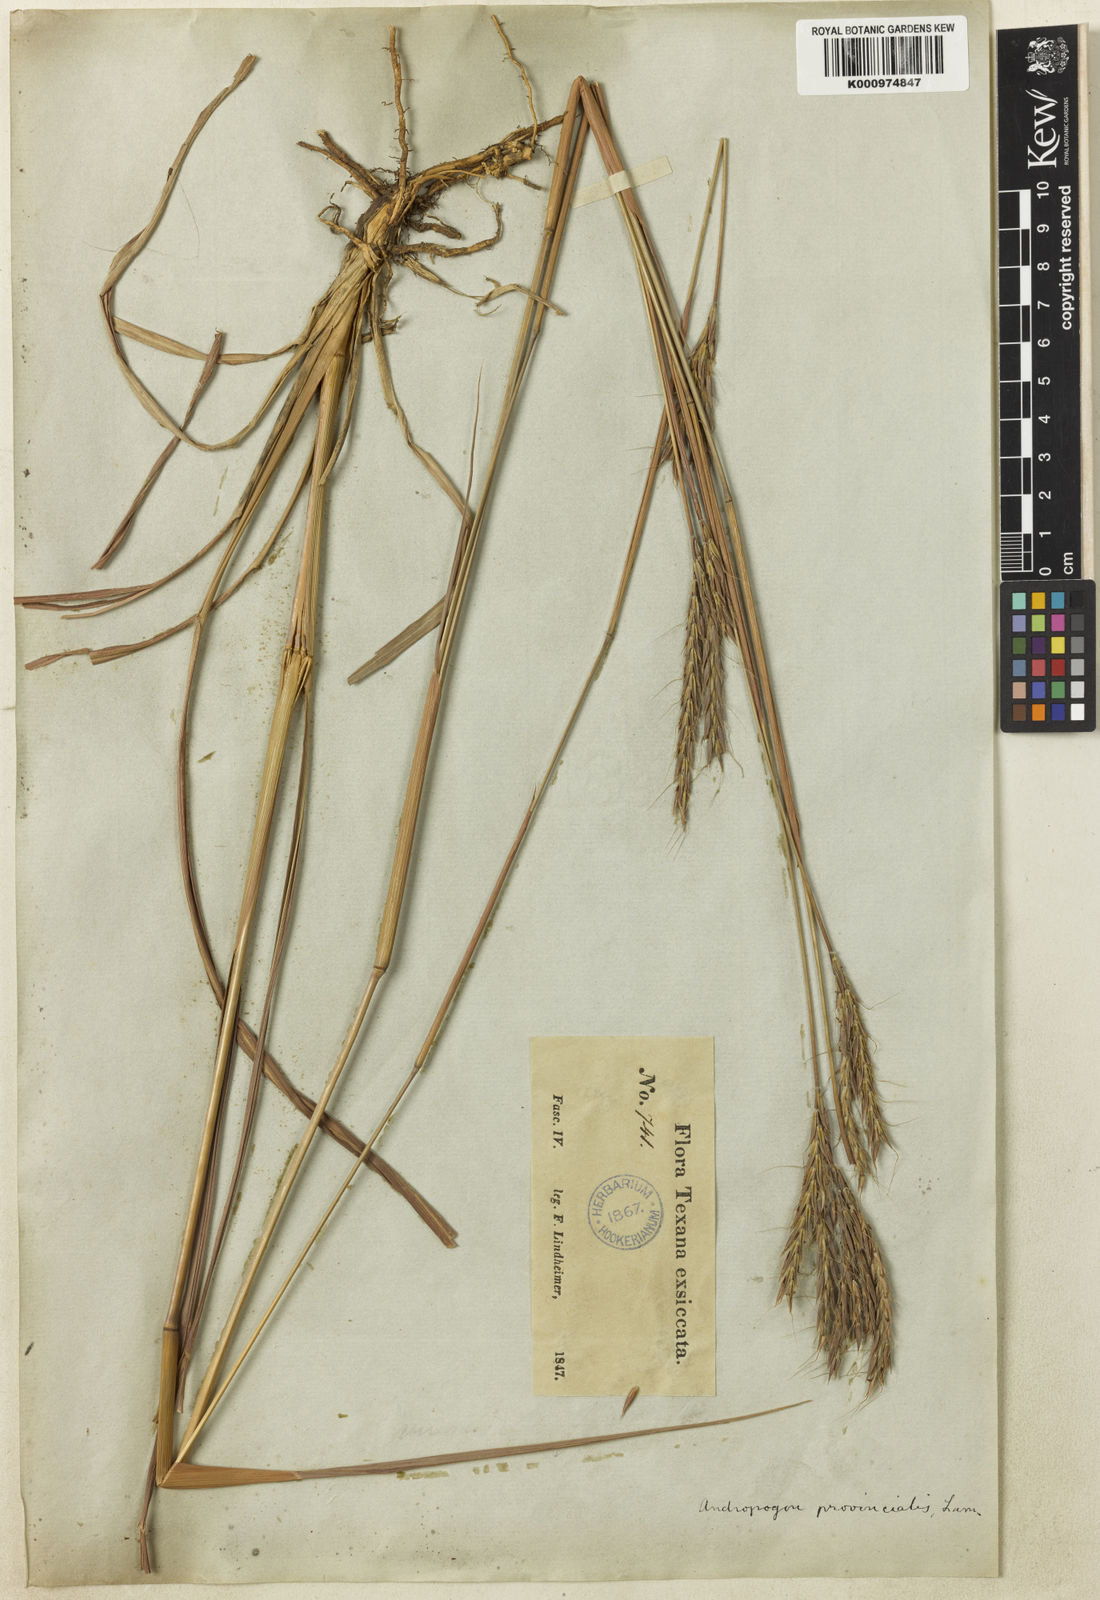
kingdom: Plantae
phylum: Tracheophyta
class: Liliopsida
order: Poales
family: Poaceae
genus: Andropogon
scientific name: Andropogon gerardi
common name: Big bluestem
